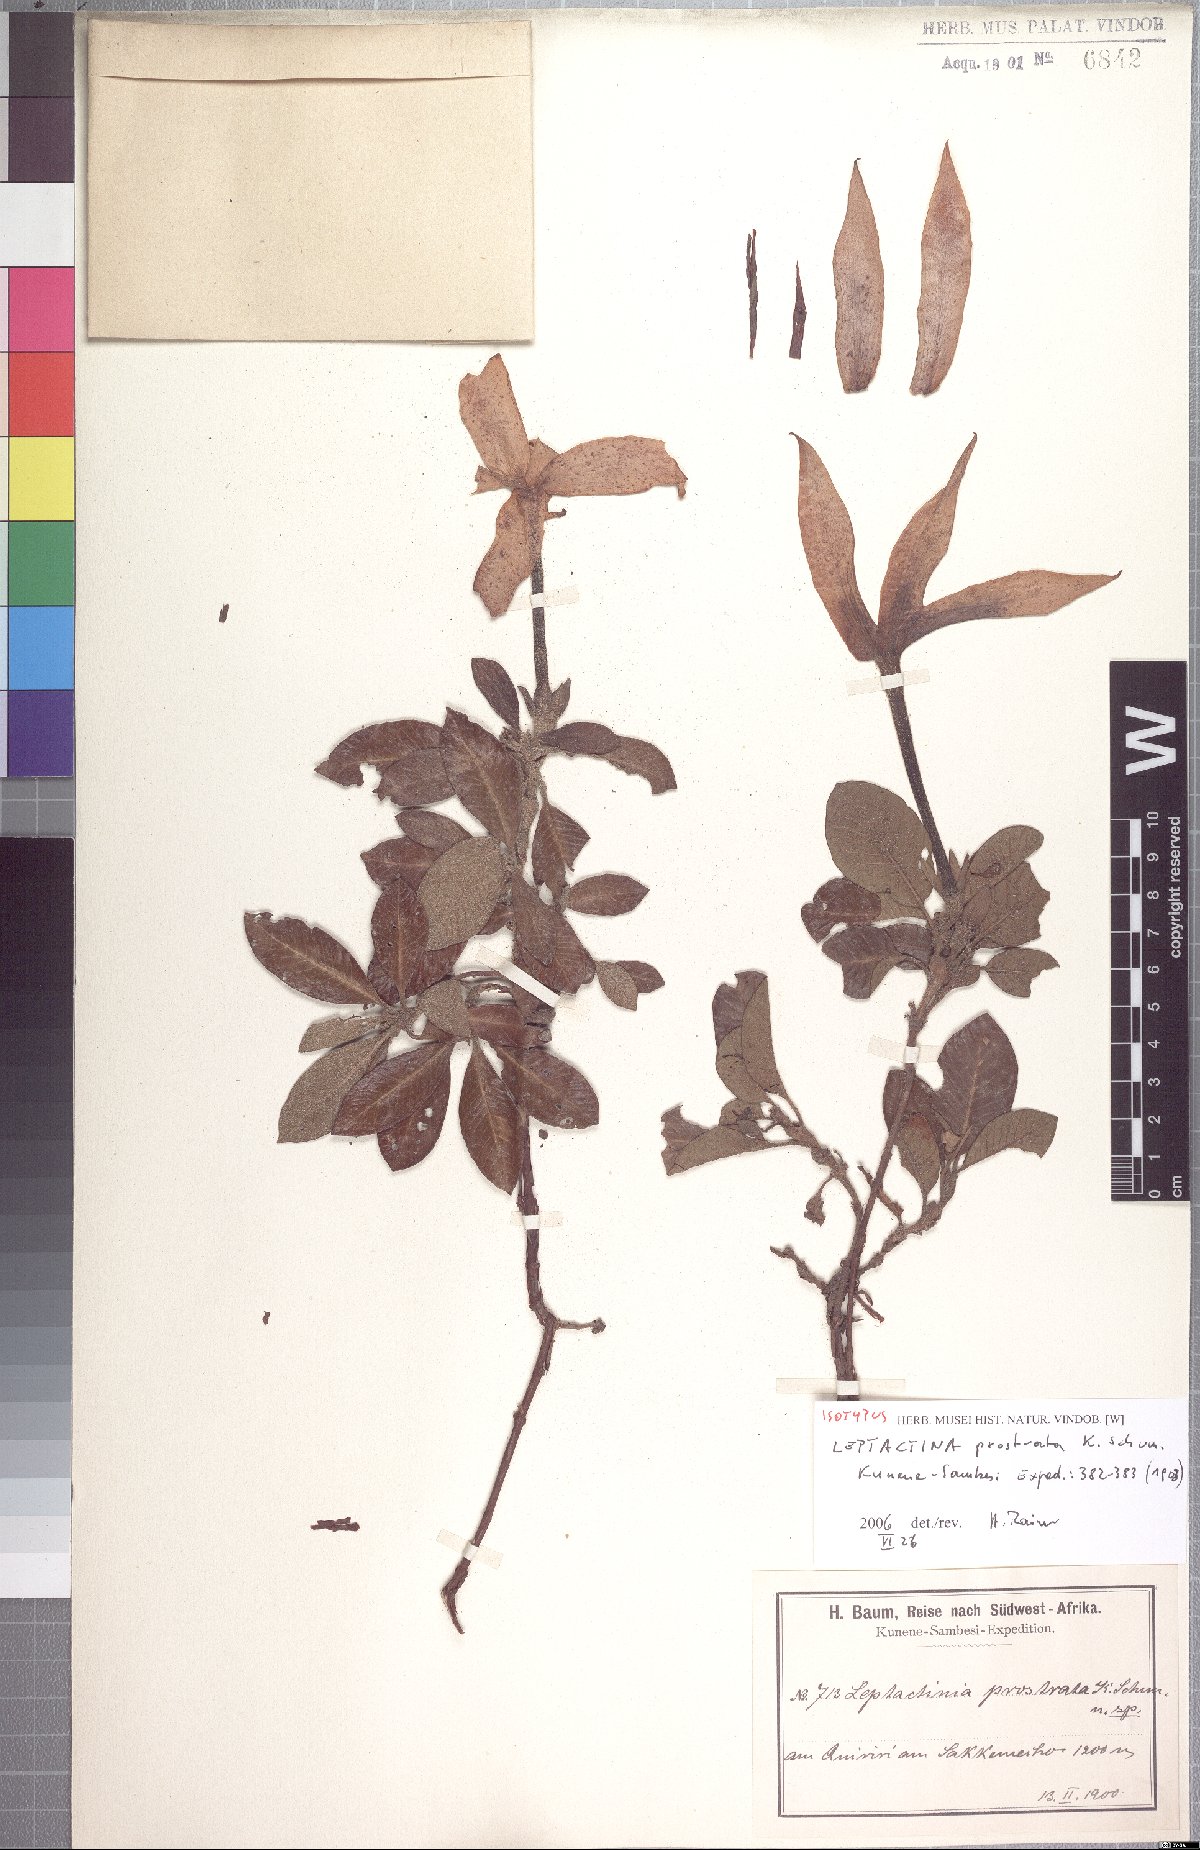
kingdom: Plantae
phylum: Tracheophyta
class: Magnoliopsida
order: Gentianales
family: Rubiaceae
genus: Leptactina
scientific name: Leptactina prostrata
